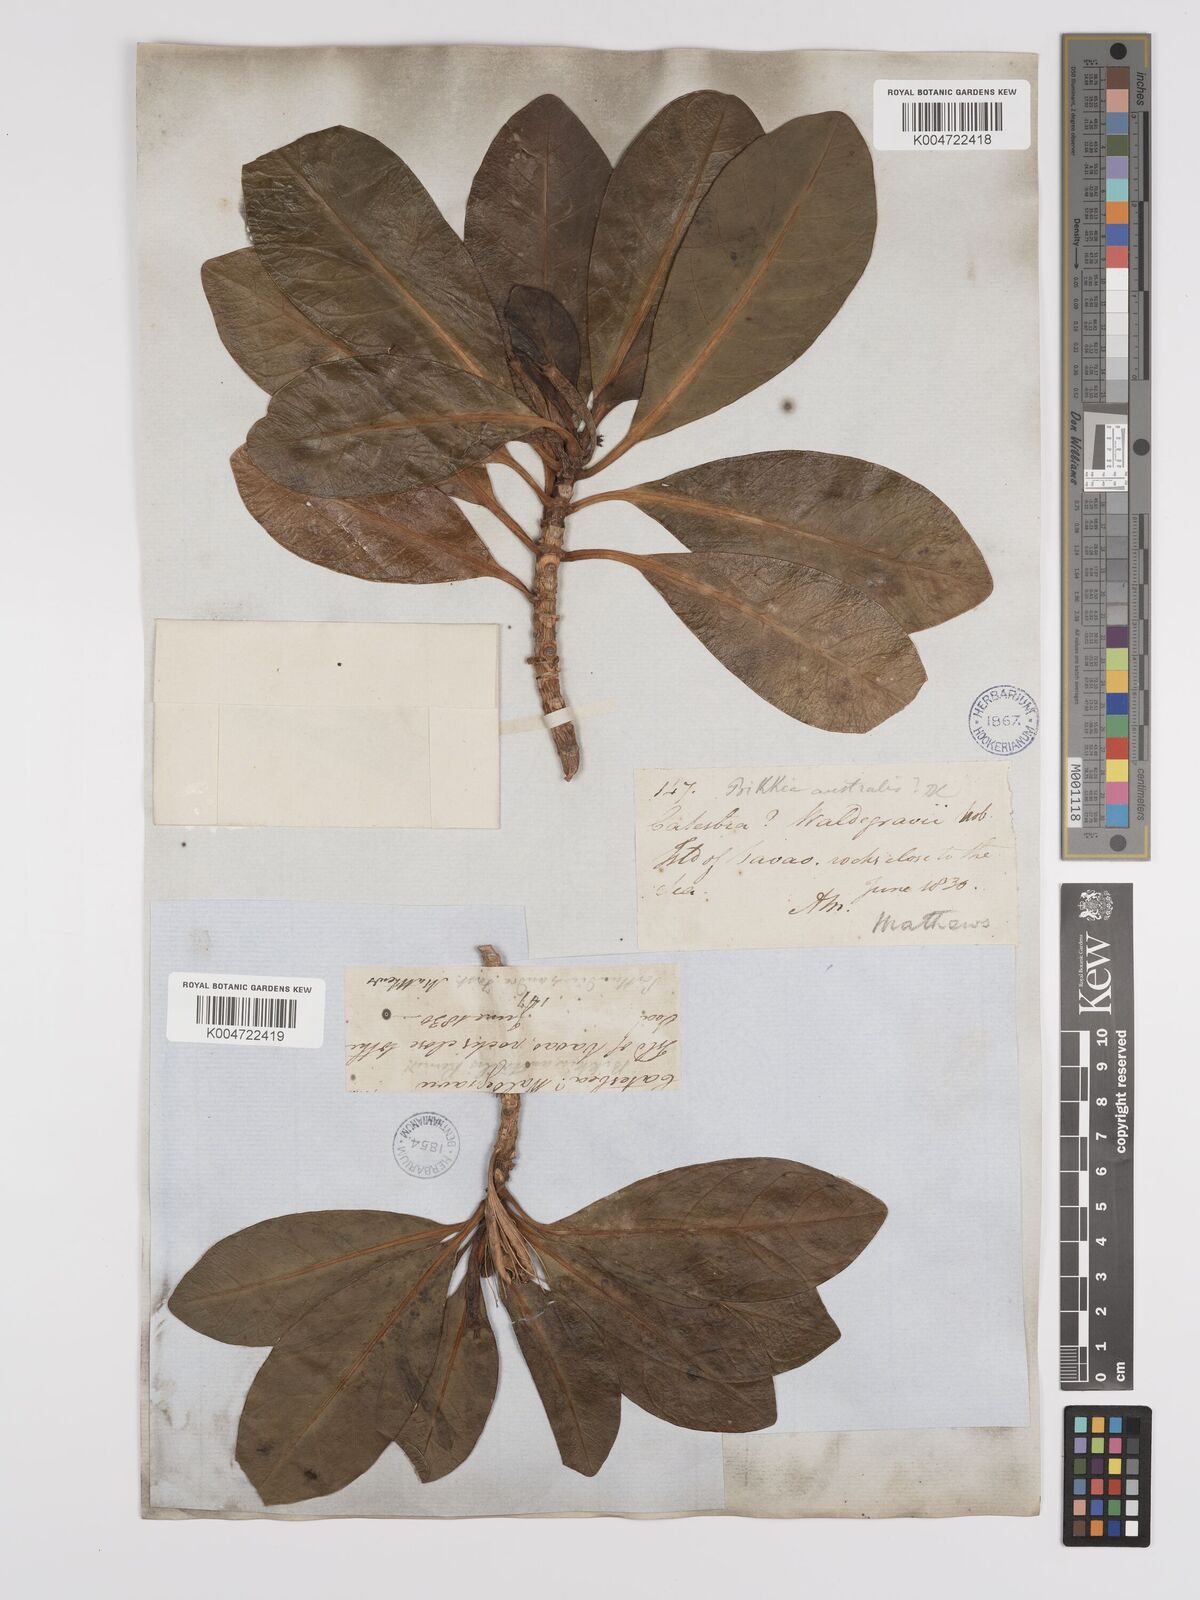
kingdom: Plantae
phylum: Tracheophyta
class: Magnoliopsida
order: Gentianales
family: Rubiaceae
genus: Bikkia
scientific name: Bikkia
